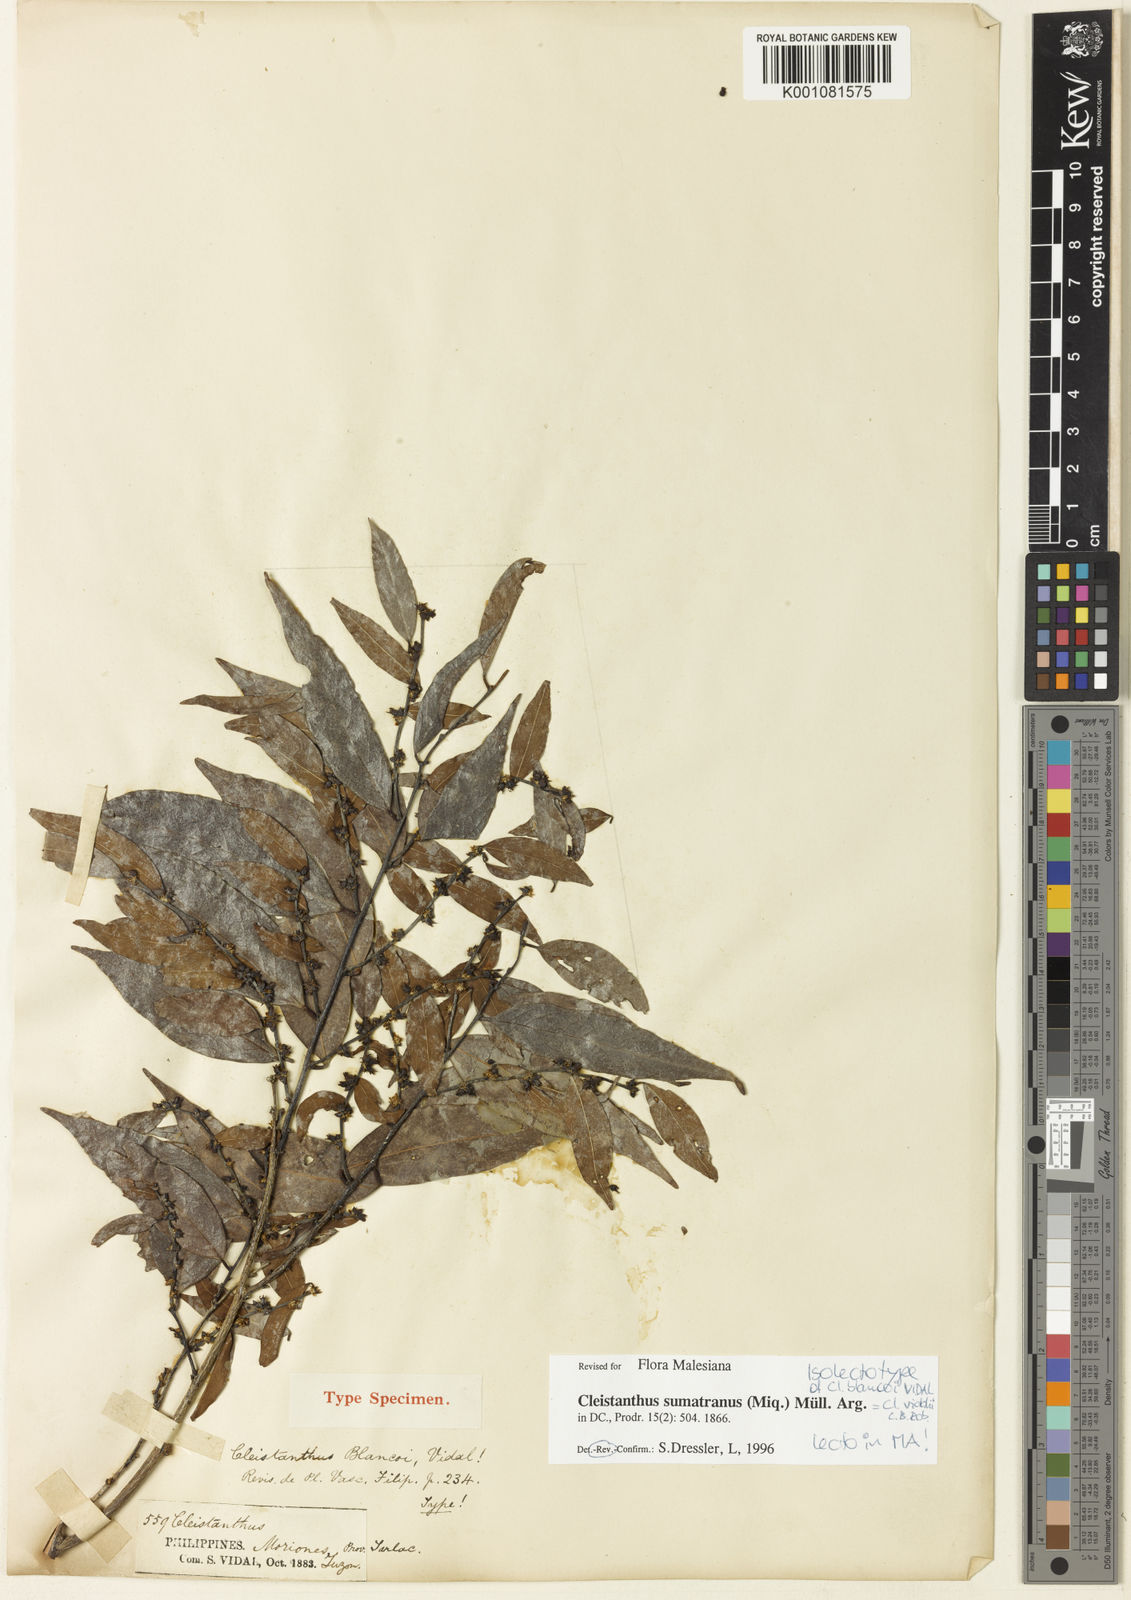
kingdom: Plantae
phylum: Tracheophyta
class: Magnoliopsida
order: Malpighiales
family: Phyllanthaceae
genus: Cleistanthus
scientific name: Cleistanthus
